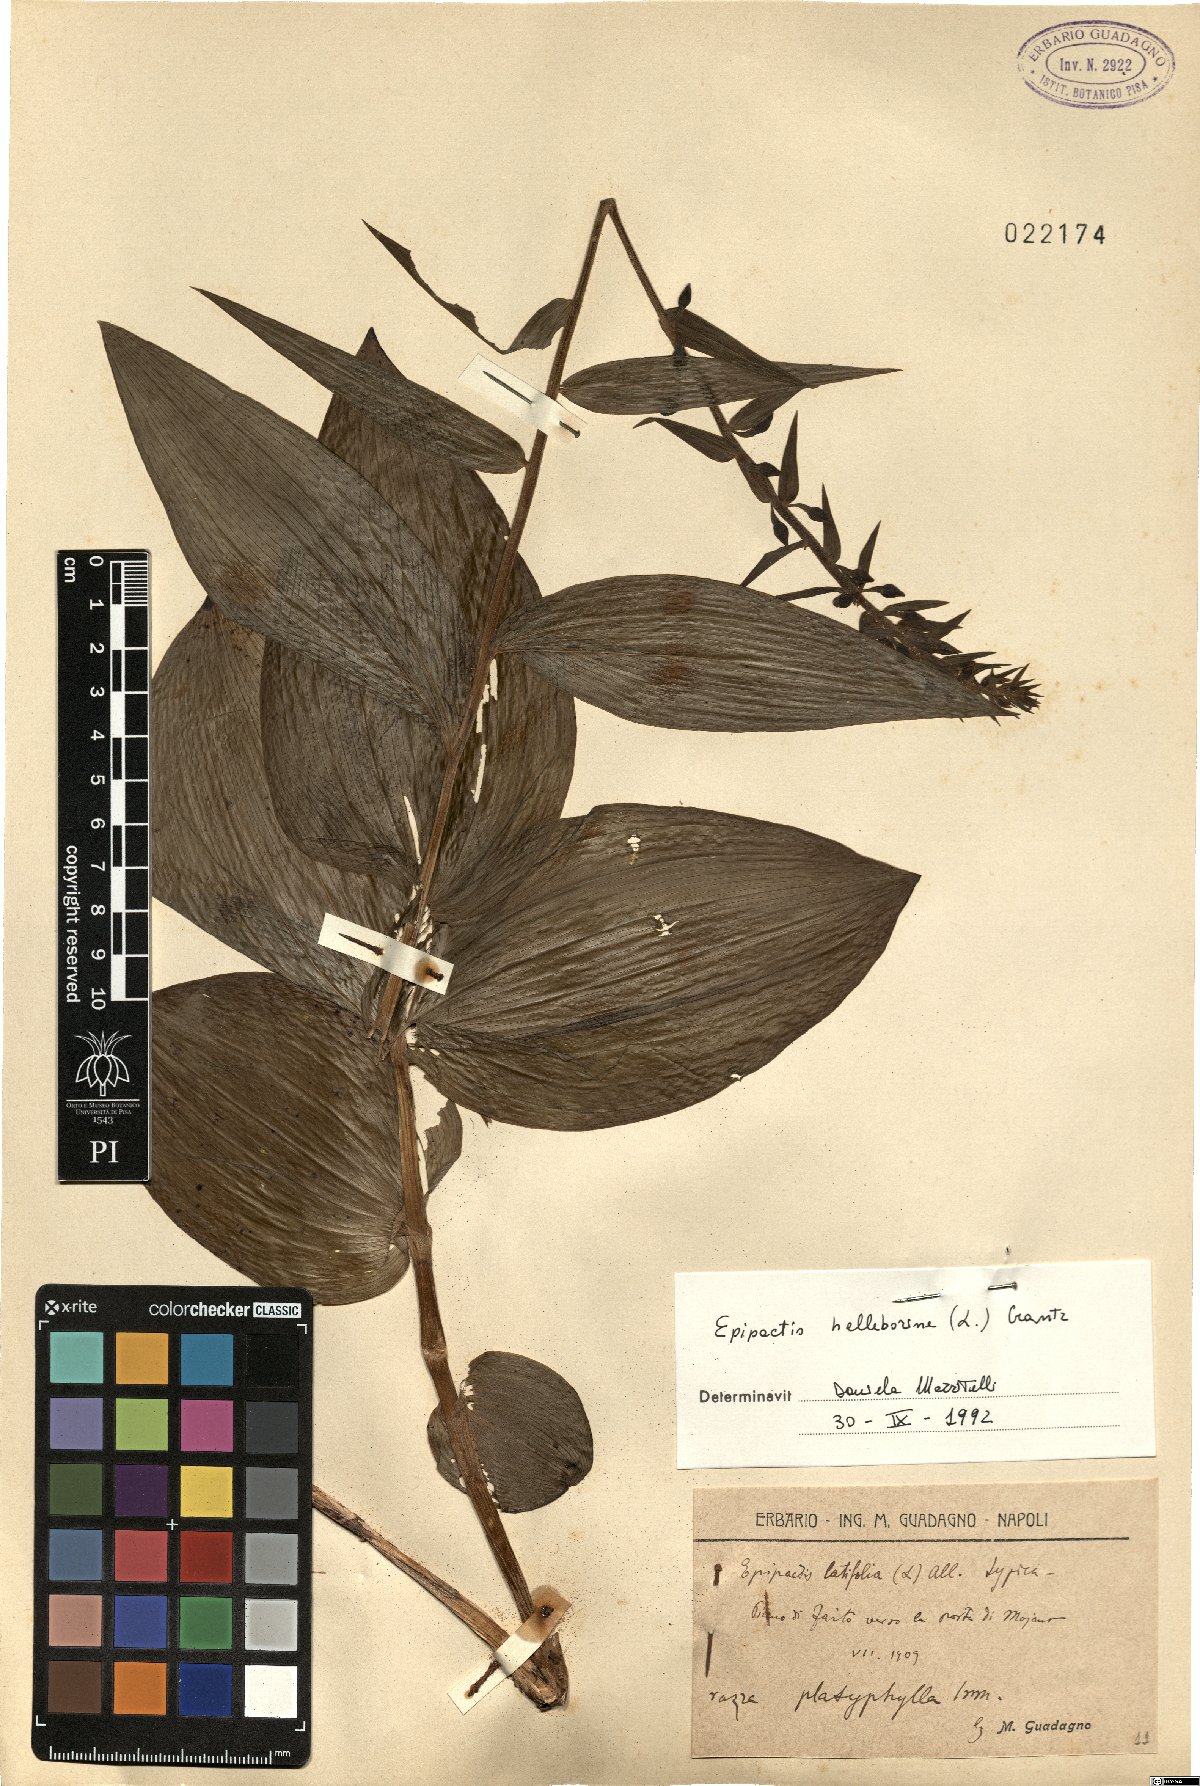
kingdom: Plantae
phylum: Tracheophyta
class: Liliopsida
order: Asparagales
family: Orchidaceae
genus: Epipactis
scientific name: Epipactis helleborine
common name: Broad-leaved helleborine
